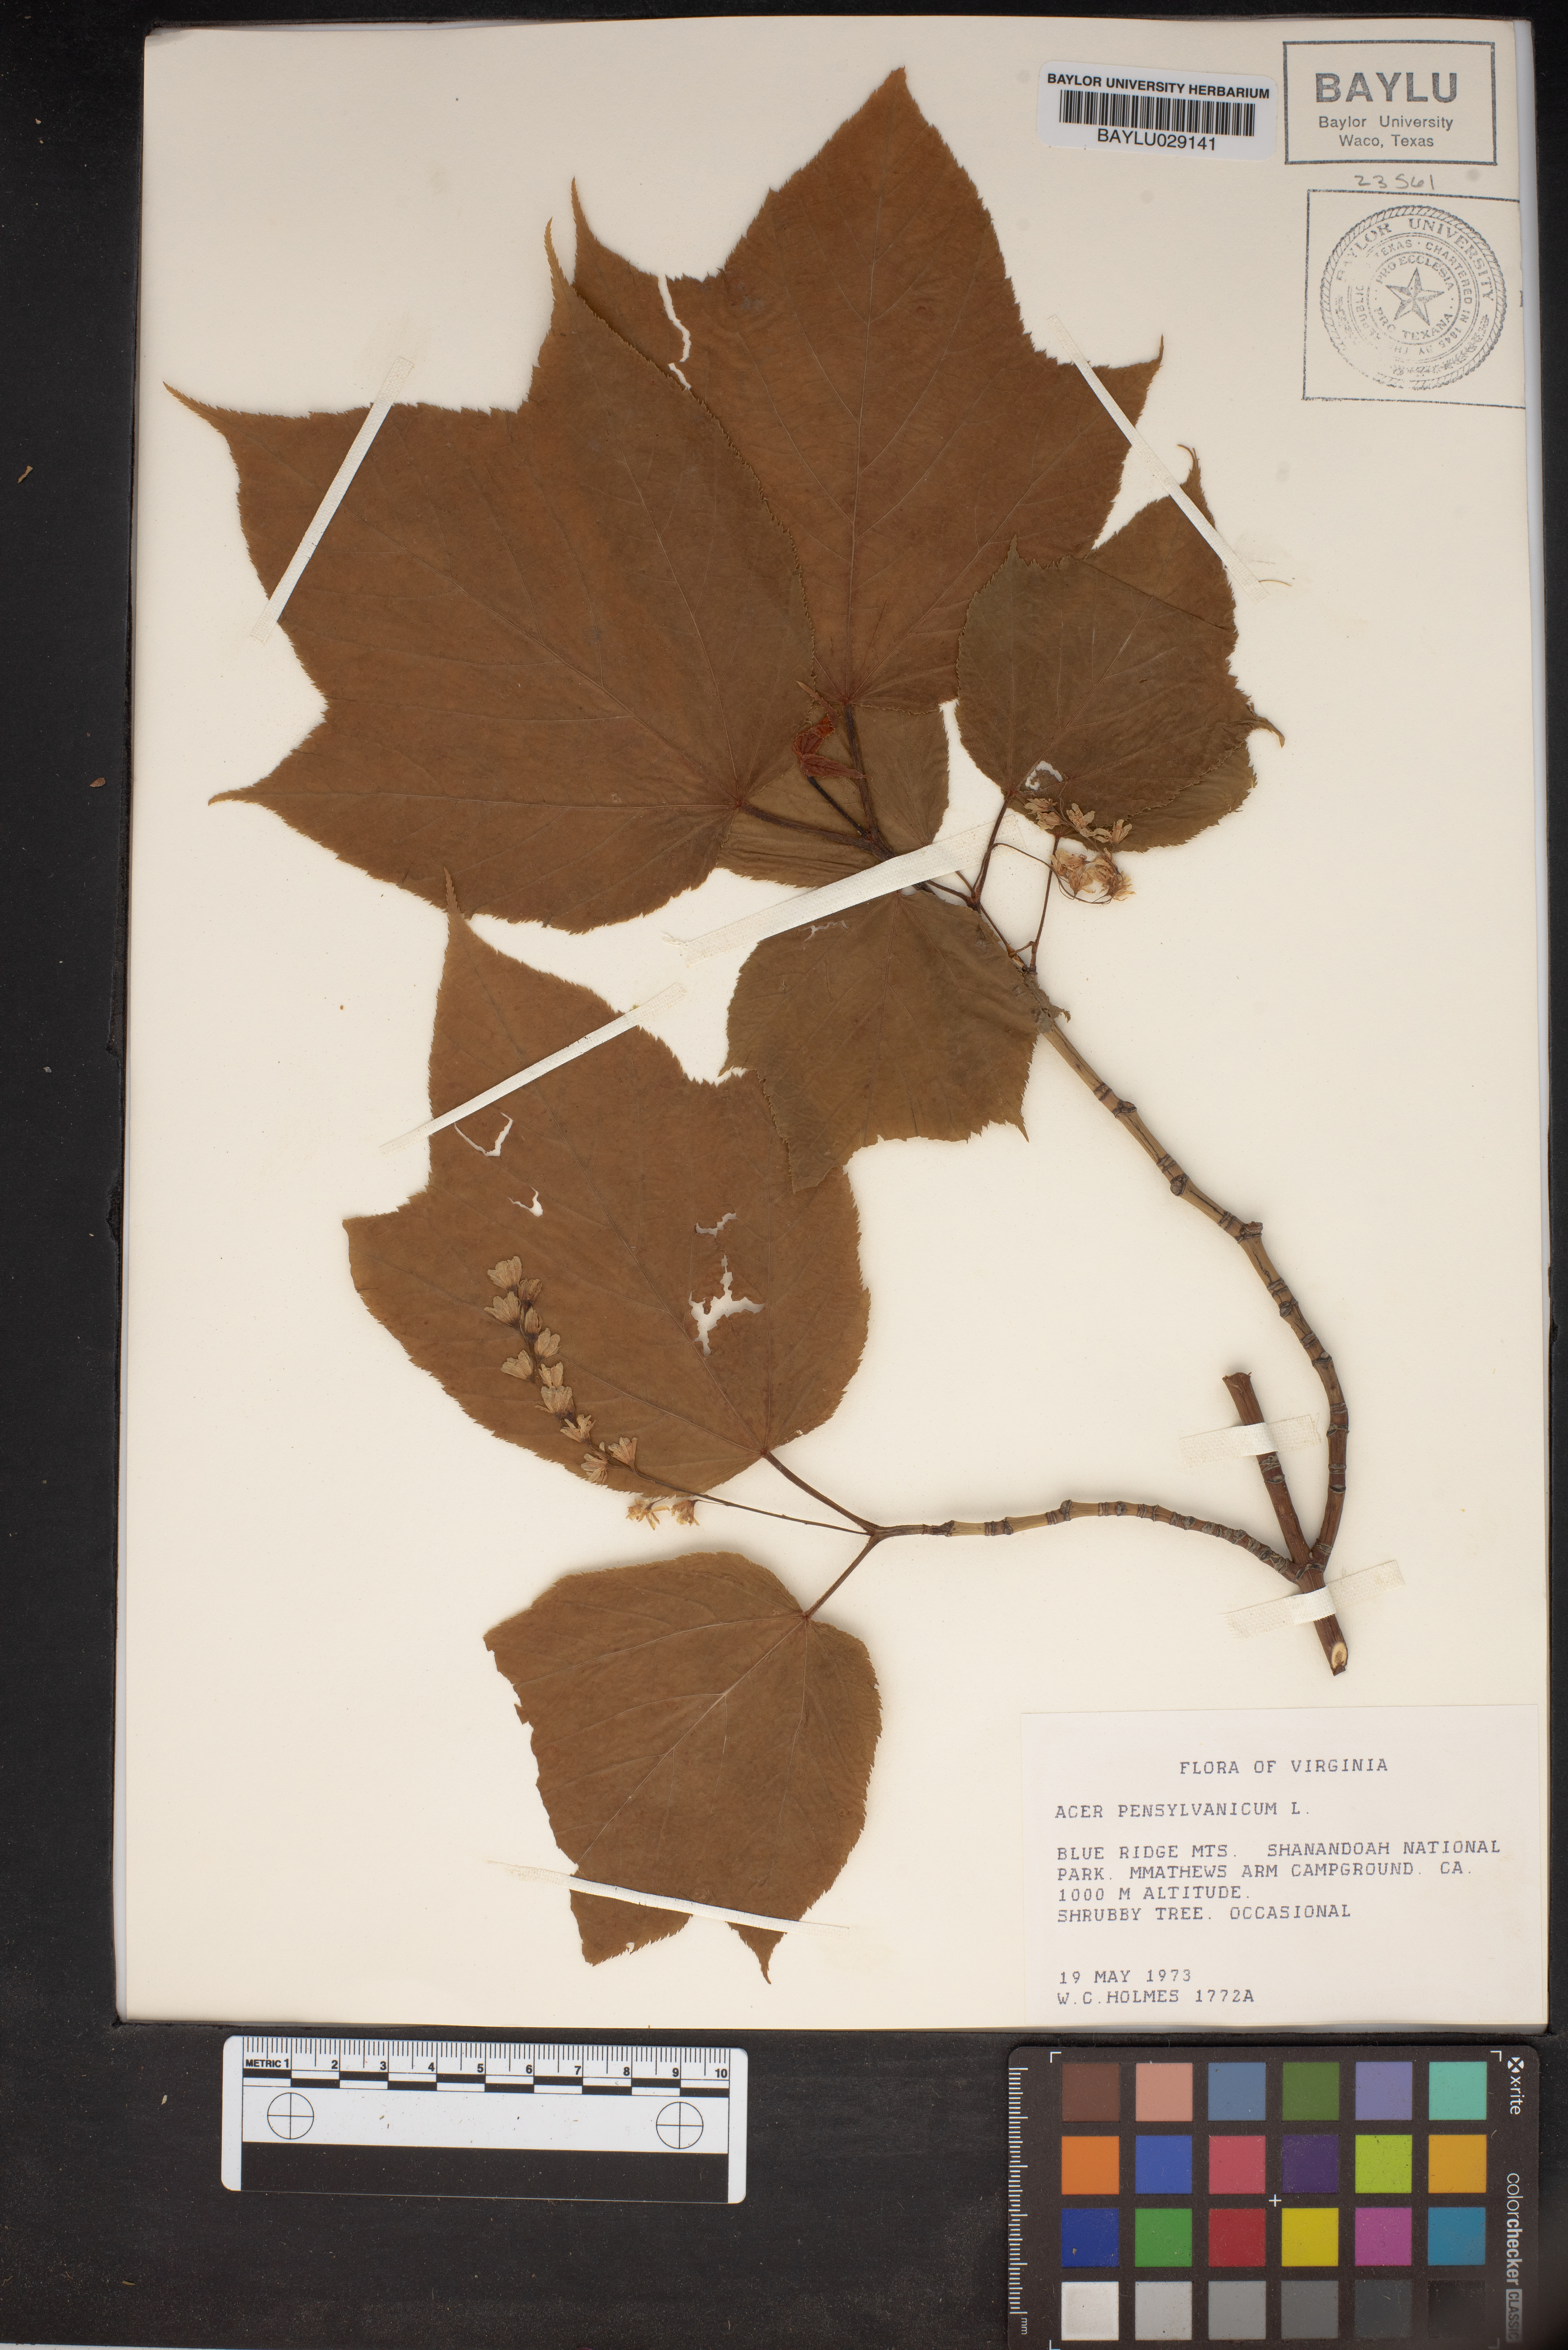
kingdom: Plantae
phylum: Tracheophyta
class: Magnoliopsida
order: Sapindales
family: Sapindaceae
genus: Acer
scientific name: Acer pensylvanicum
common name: Moosewood
